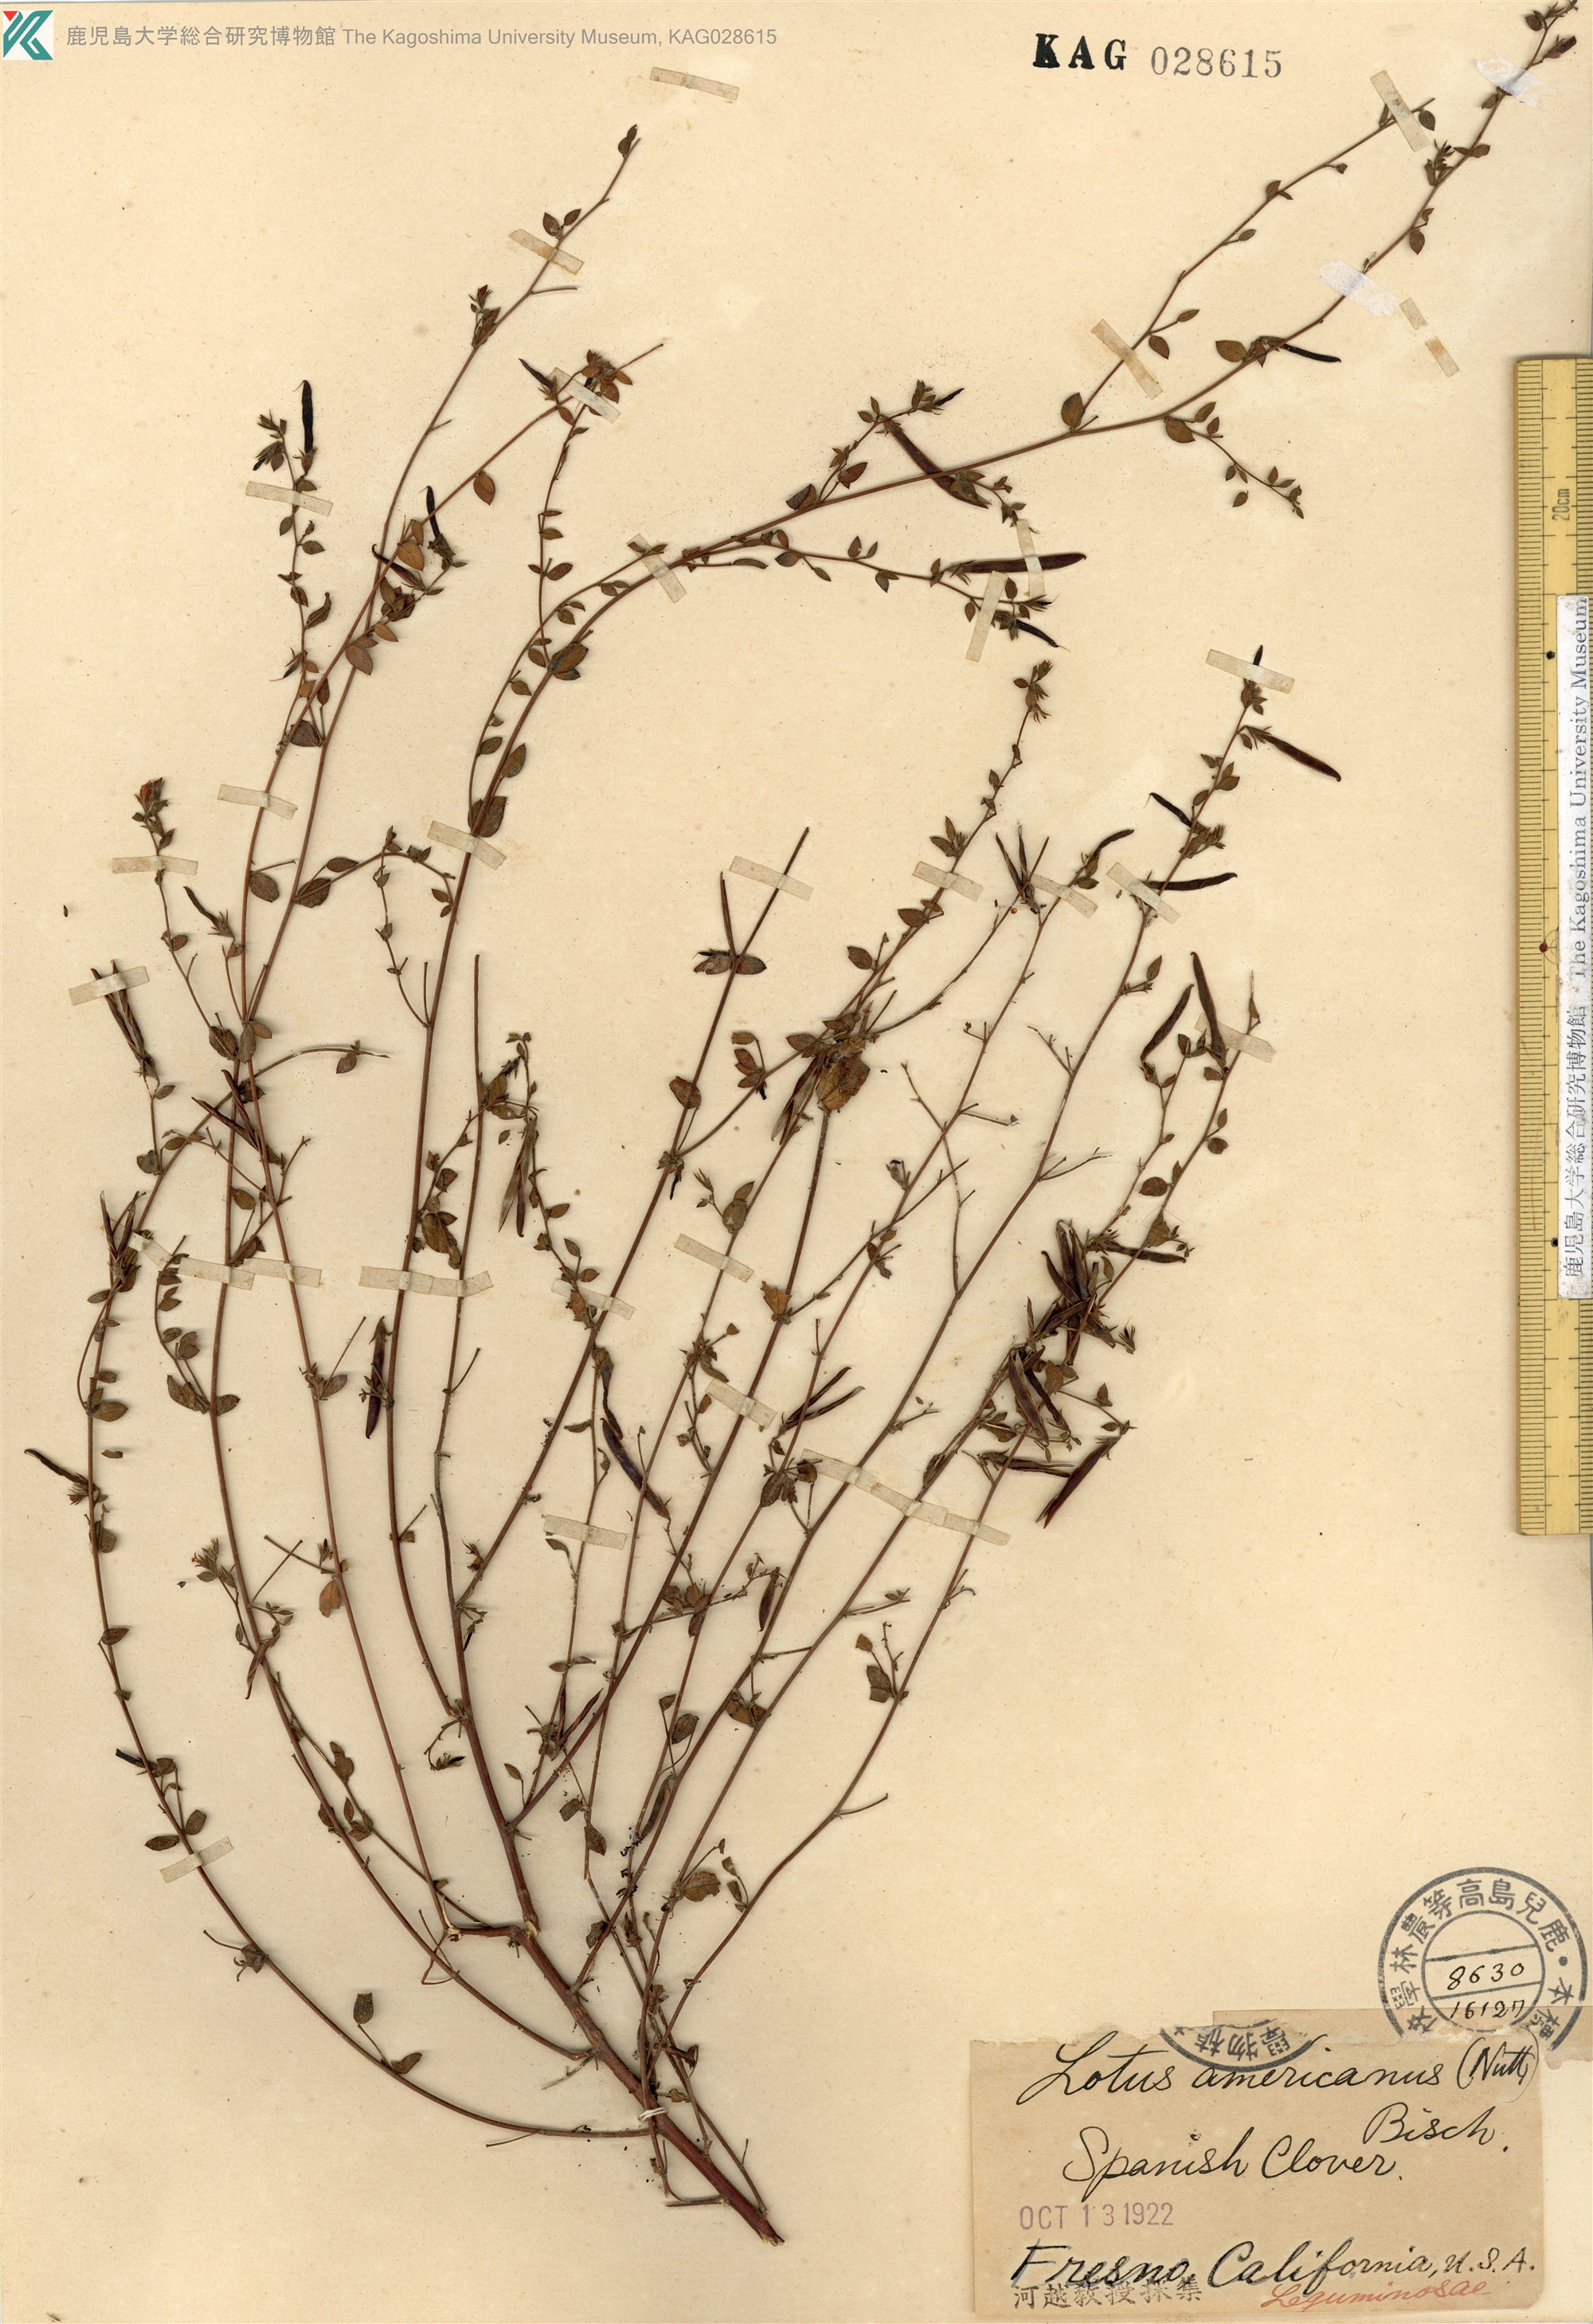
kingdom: Plantae
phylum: Tracheophyta
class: Magnoliopsida
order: Fabales
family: Fabaceae
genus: Acmispon
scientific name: Acmispon americanus
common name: American bird's-foot trefoil
